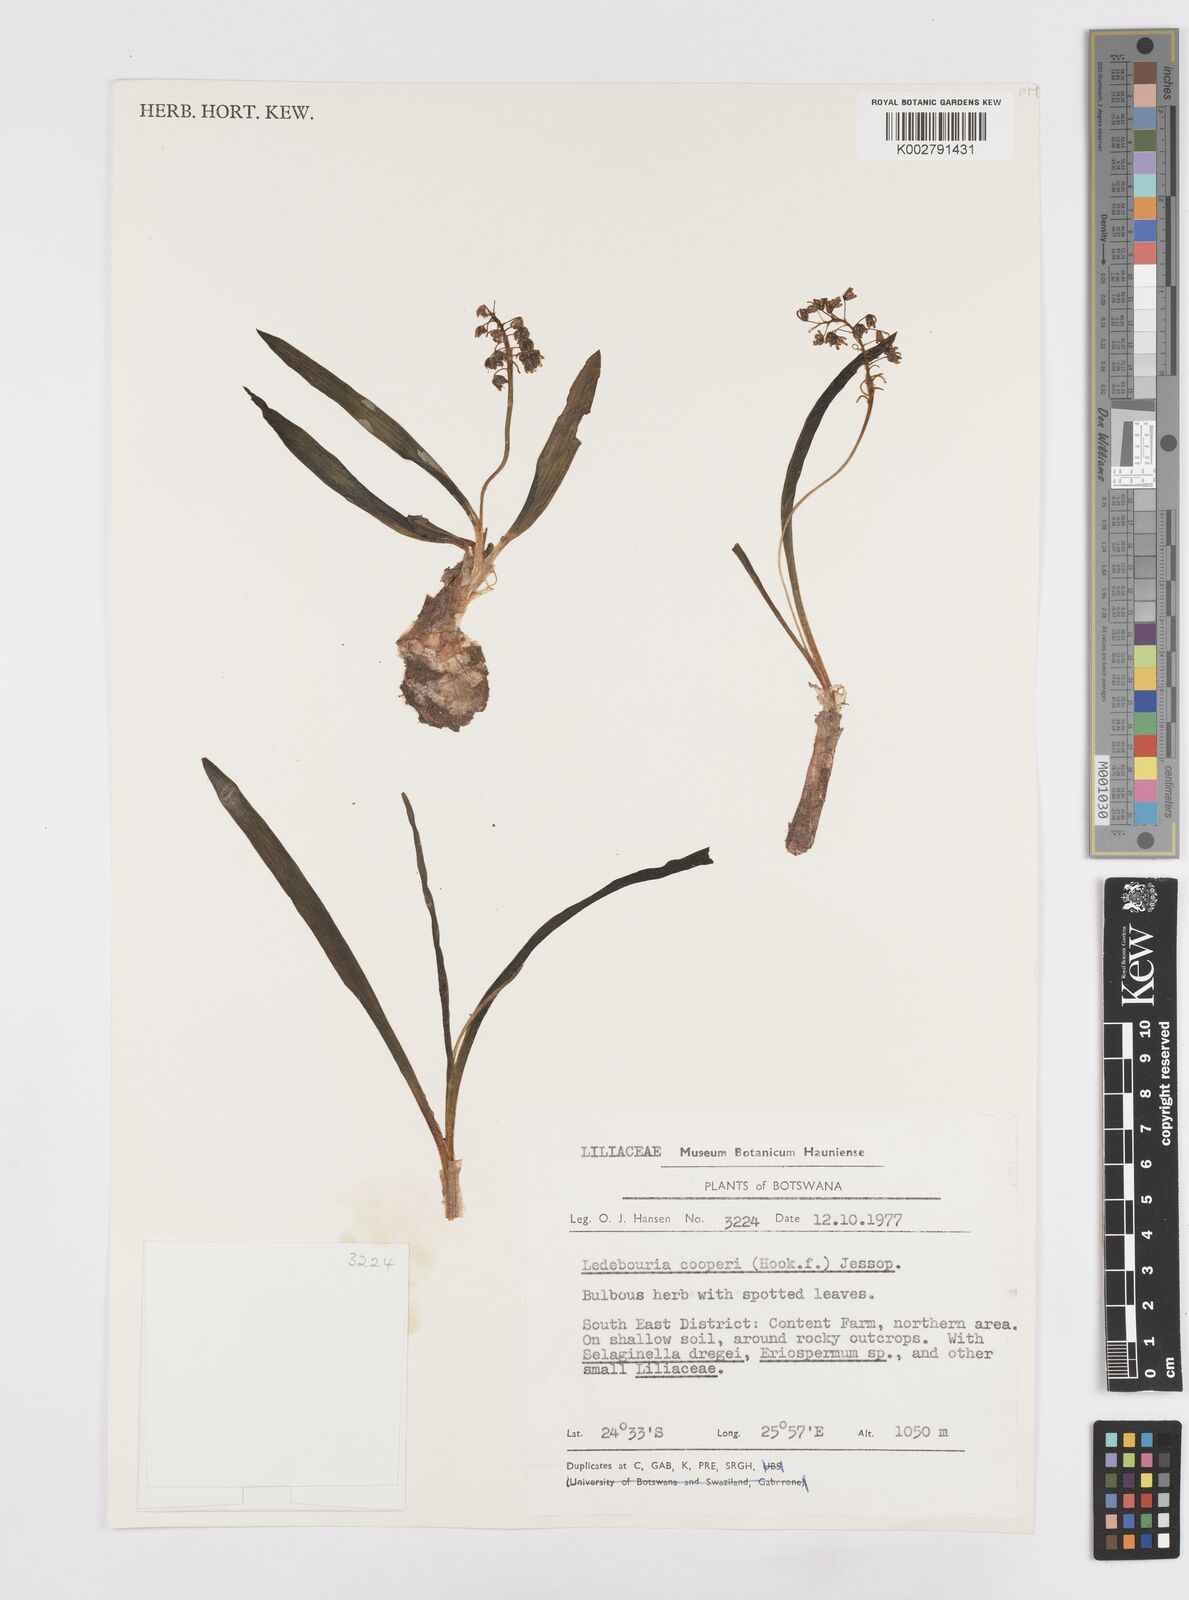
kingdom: Plantae
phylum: Tracheophyta
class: Liliopsida
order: Asparagales
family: Asparagaceae
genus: Ledebouria
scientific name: Ledebouria cooperi
